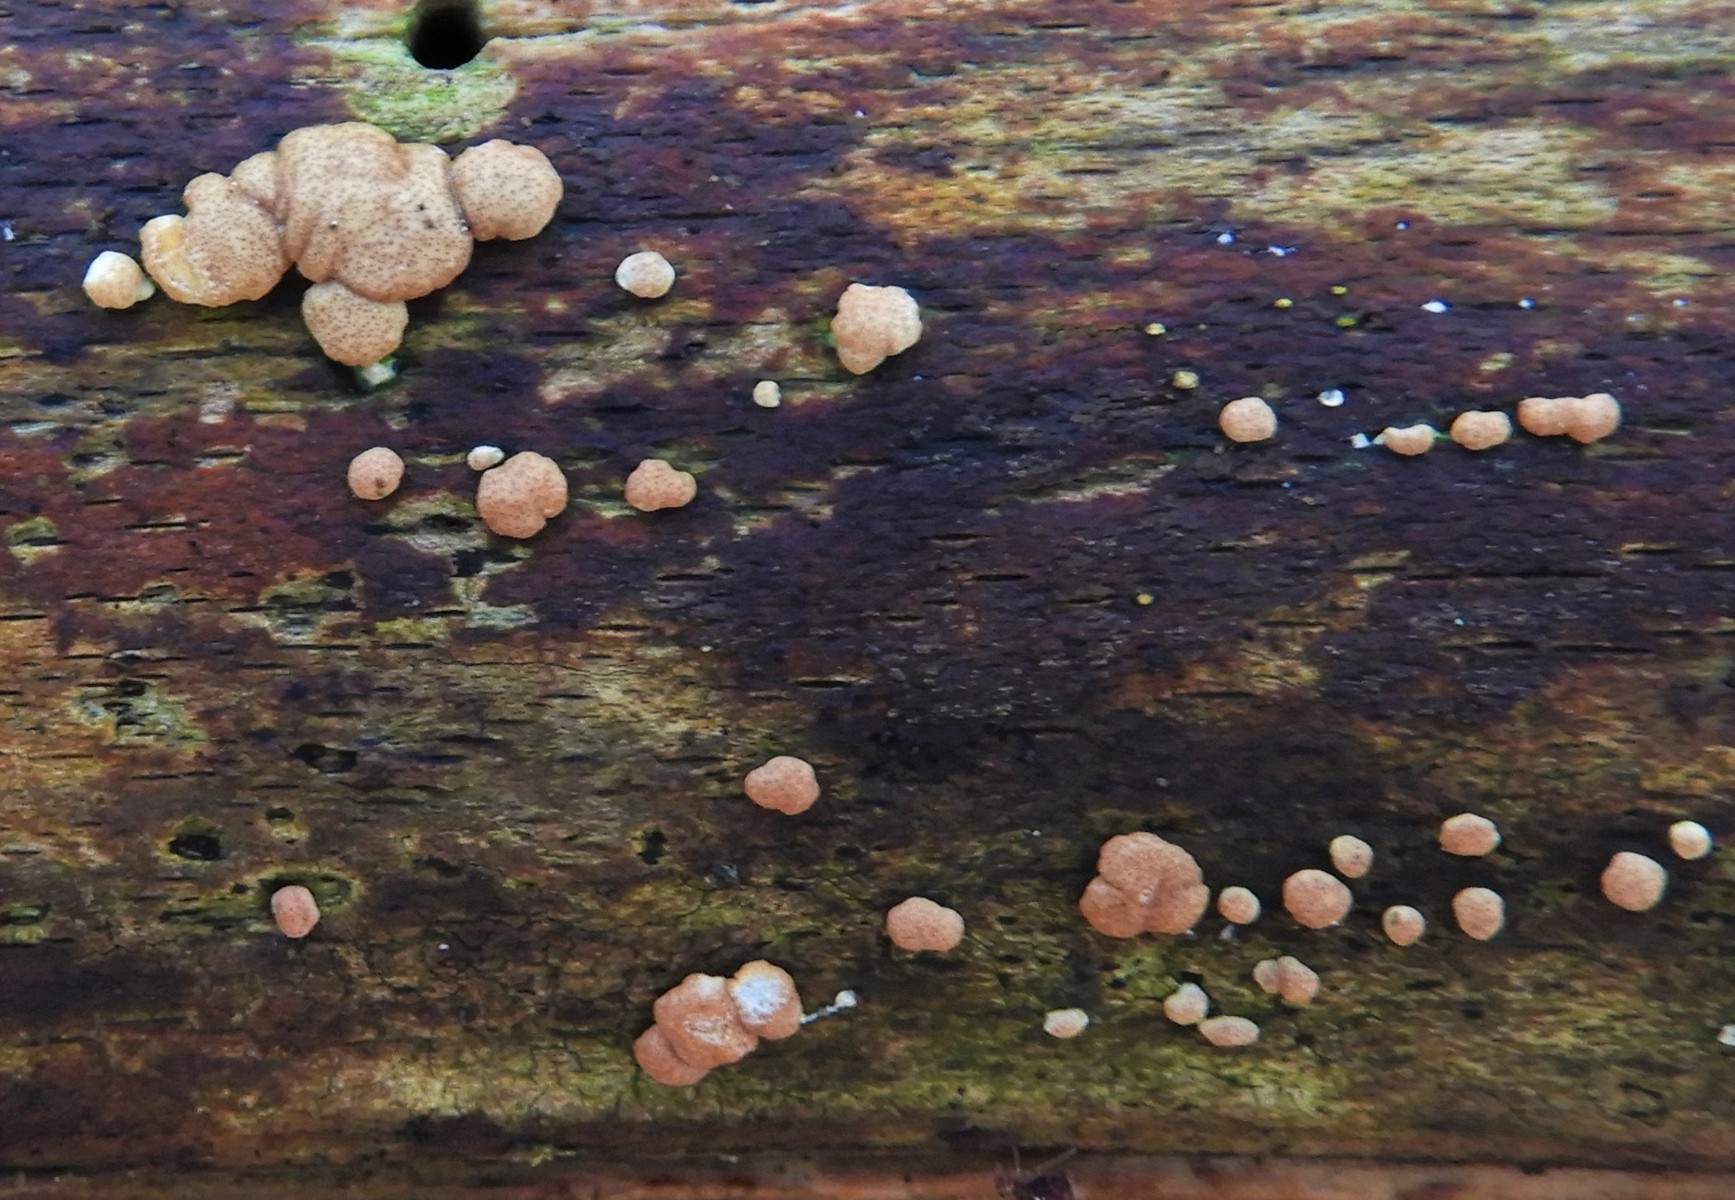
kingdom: Fungi
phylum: Ascomycota
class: Sordariomycetes
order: Hypocreales
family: Hypocreaceae
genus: Trichoderma
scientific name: Trichoderma europaeum
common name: rosabrun kødkerne
